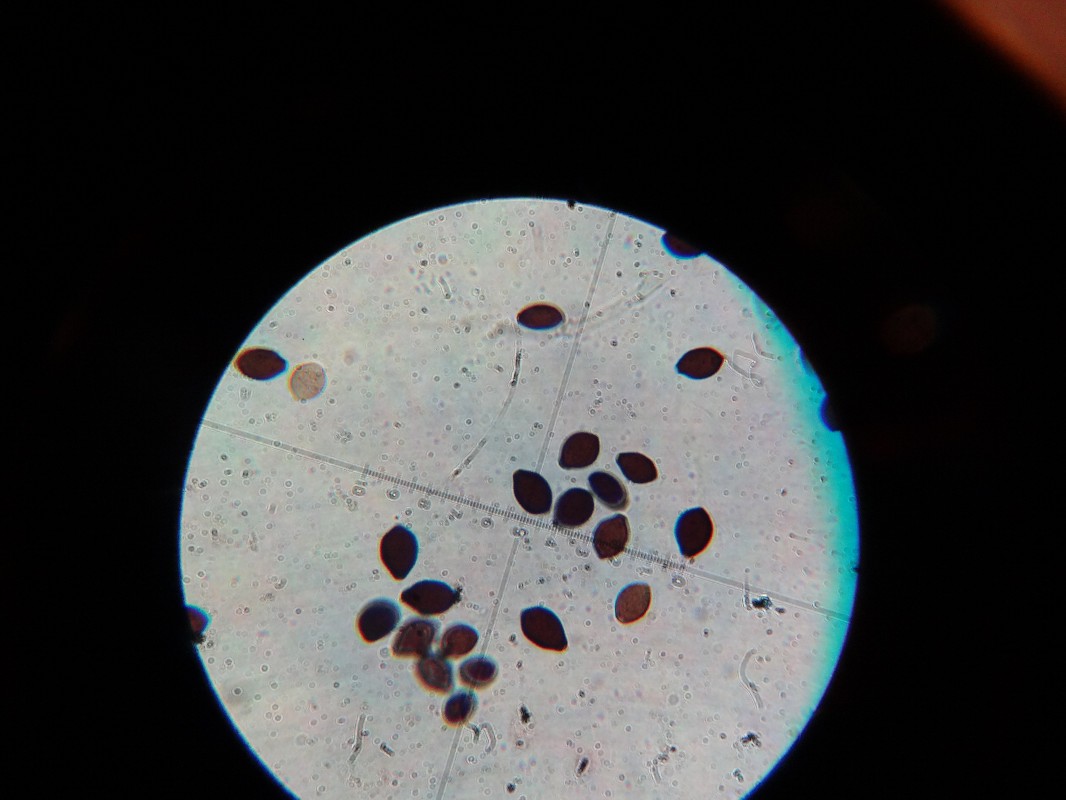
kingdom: Fungi
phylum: Basidiomycota
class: Agaricomycetes
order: Agaricales
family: Bolbitiaceae
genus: Panaeolus
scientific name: Panaeolus papilionaceus
